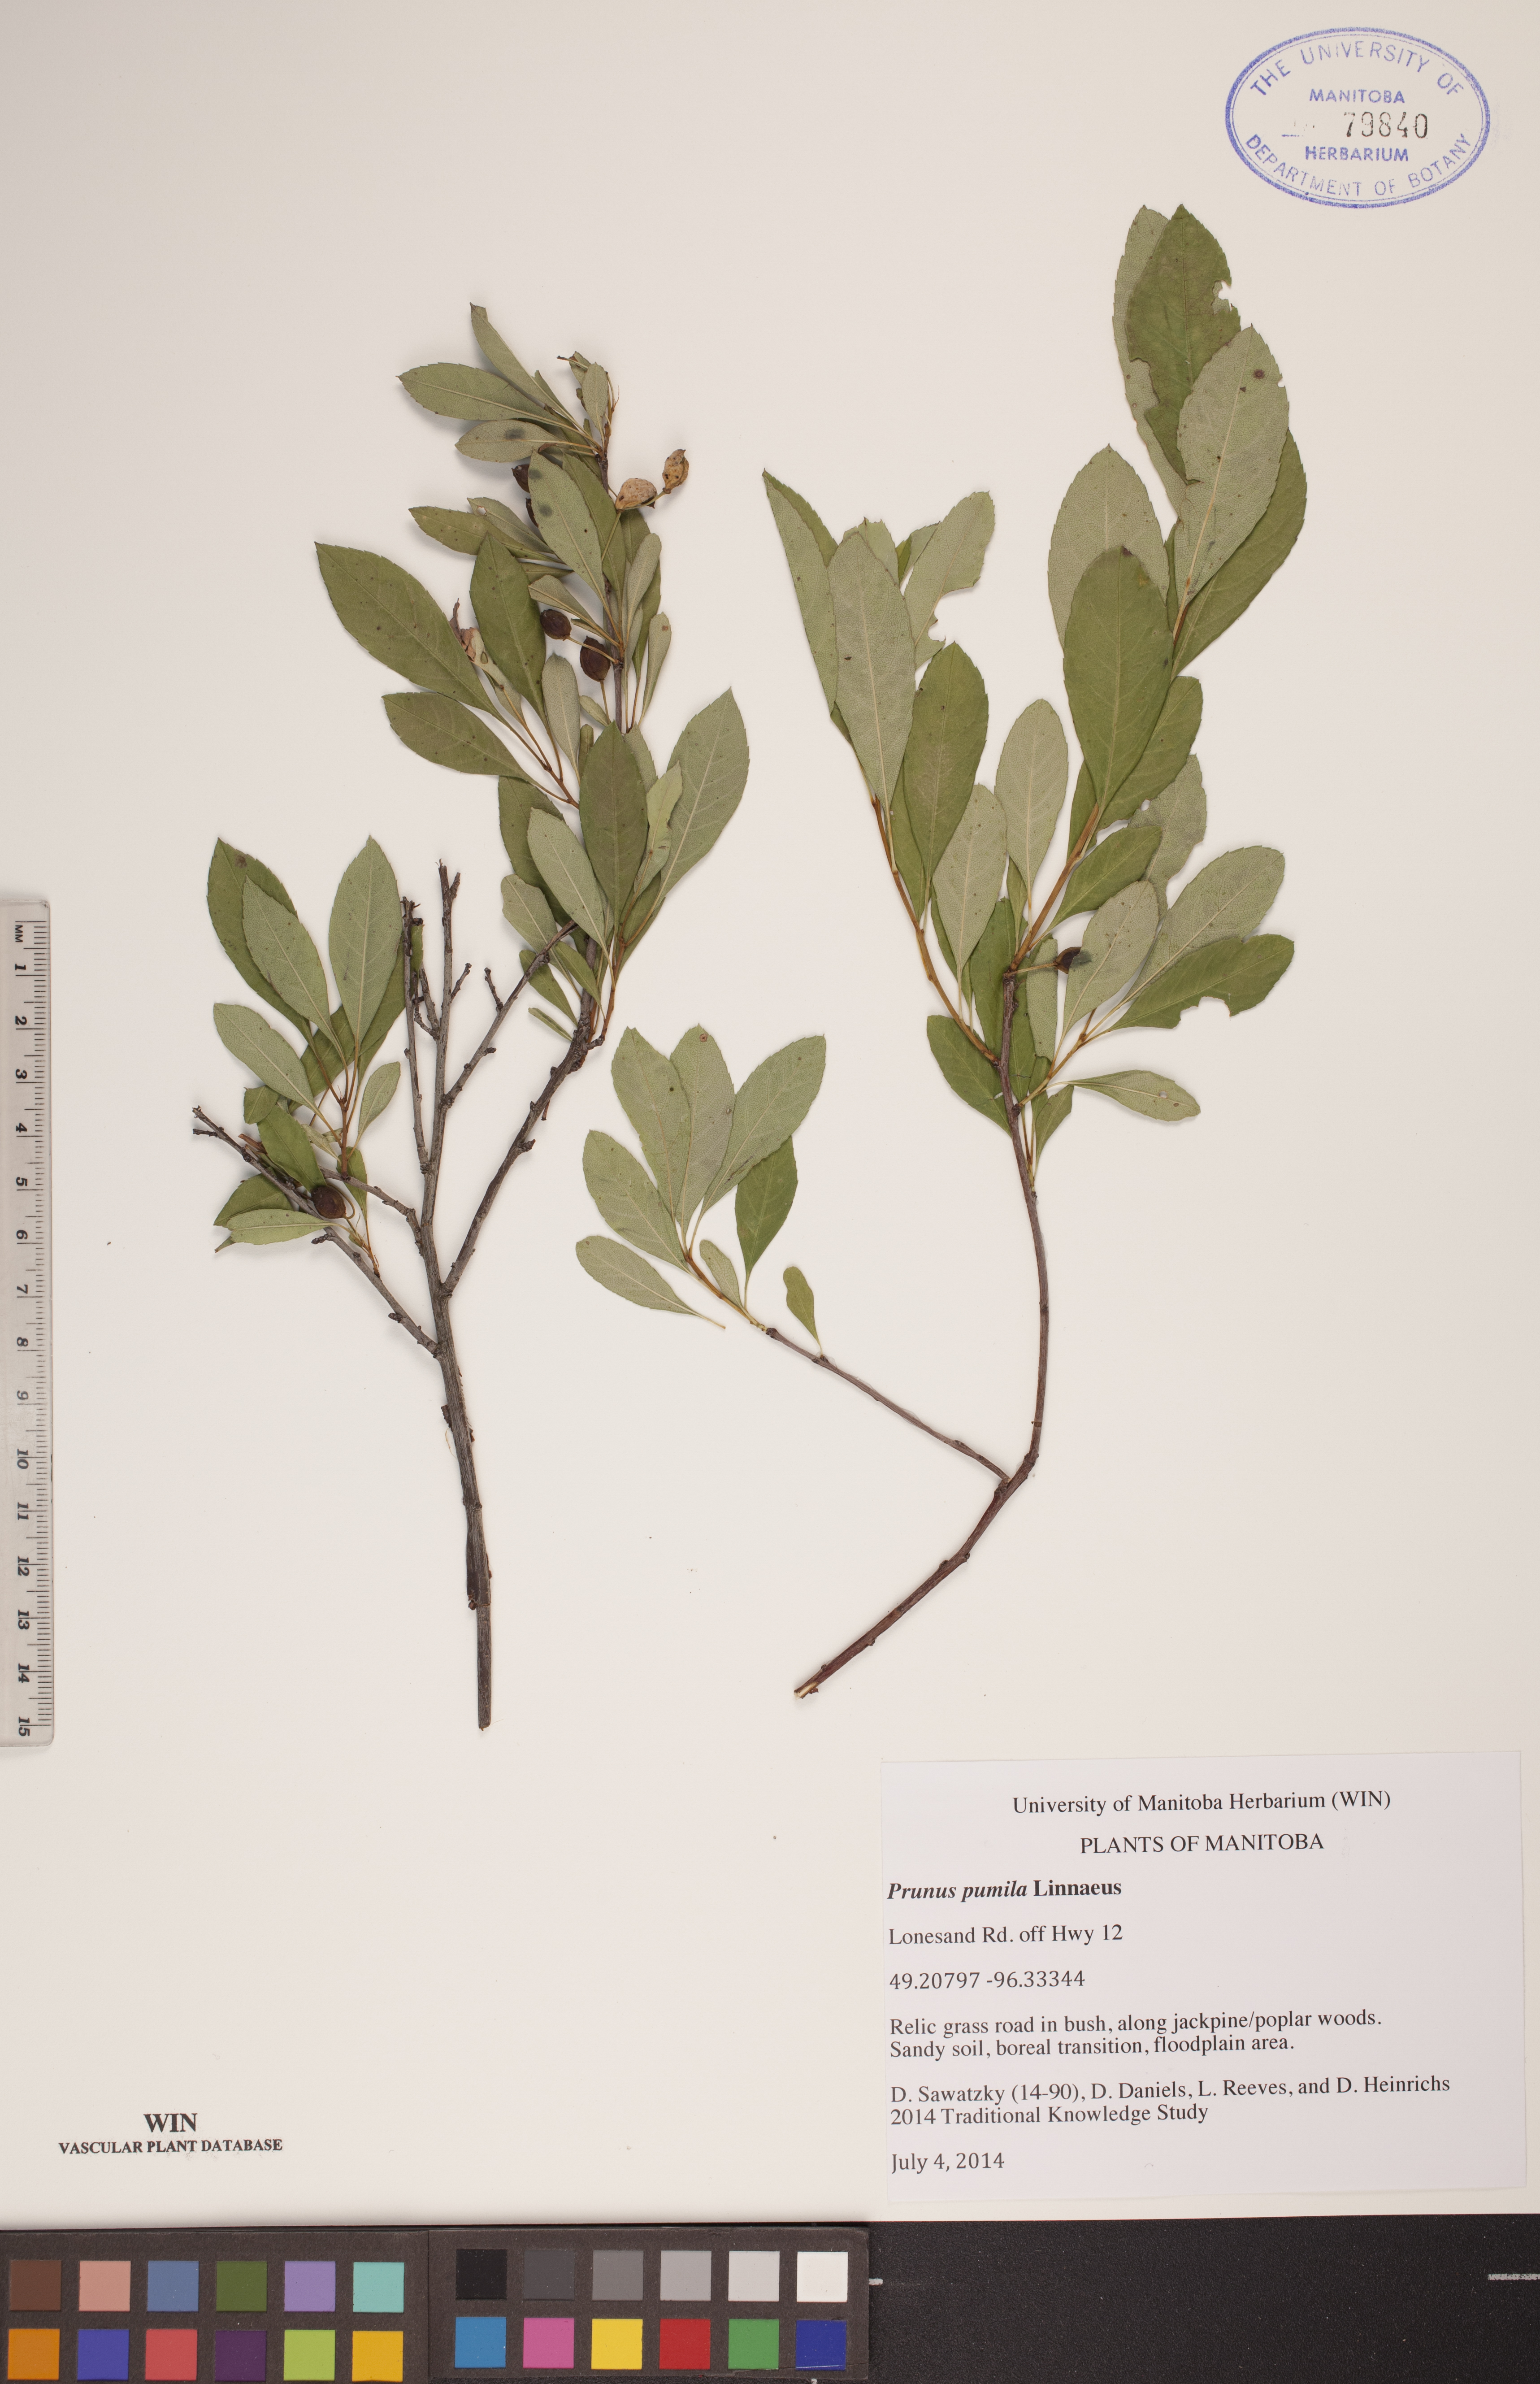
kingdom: Plantae
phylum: Tracheophyta
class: Magnoliopsida
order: Rosales
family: Rosaceae
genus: Prunus
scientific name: Prunus pumila
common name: Dwarf cherry
